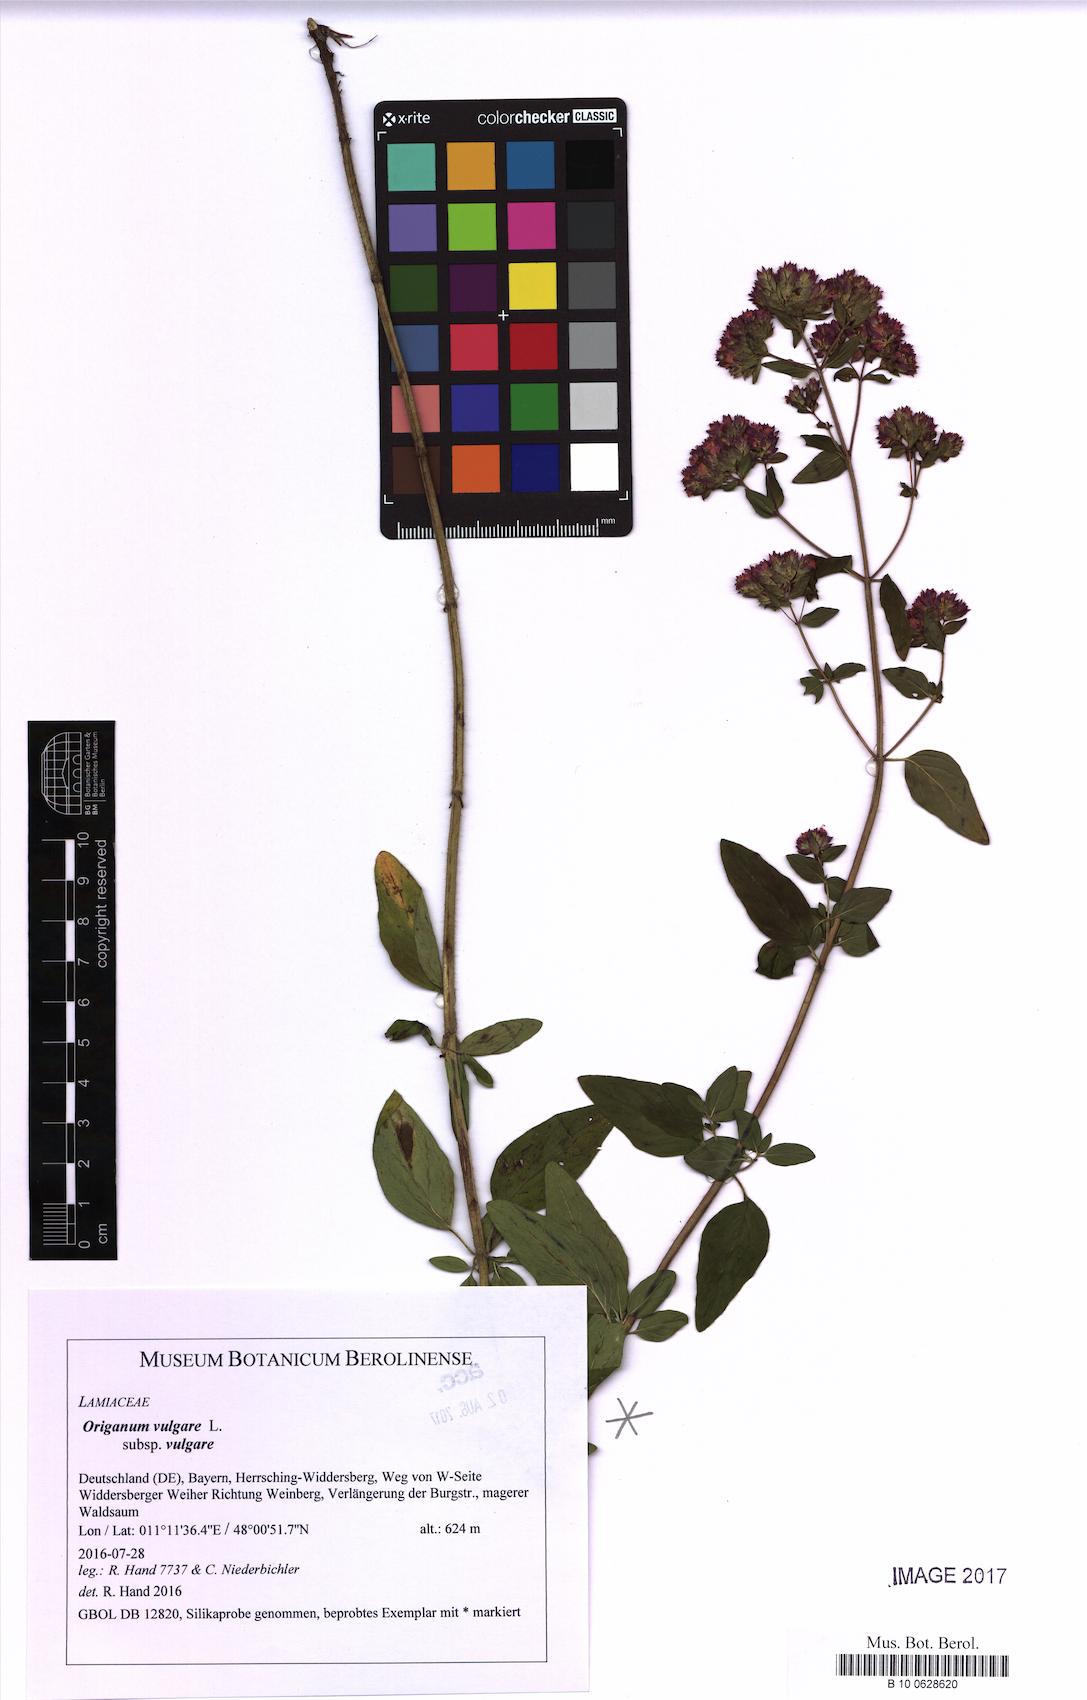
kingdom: Plantae
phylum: Tracheophyta
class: Magnoliopsida
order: Lamiales
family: Lamiaceae
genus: Origanum
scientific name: Origanum vulgare
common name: Wild marjoram
